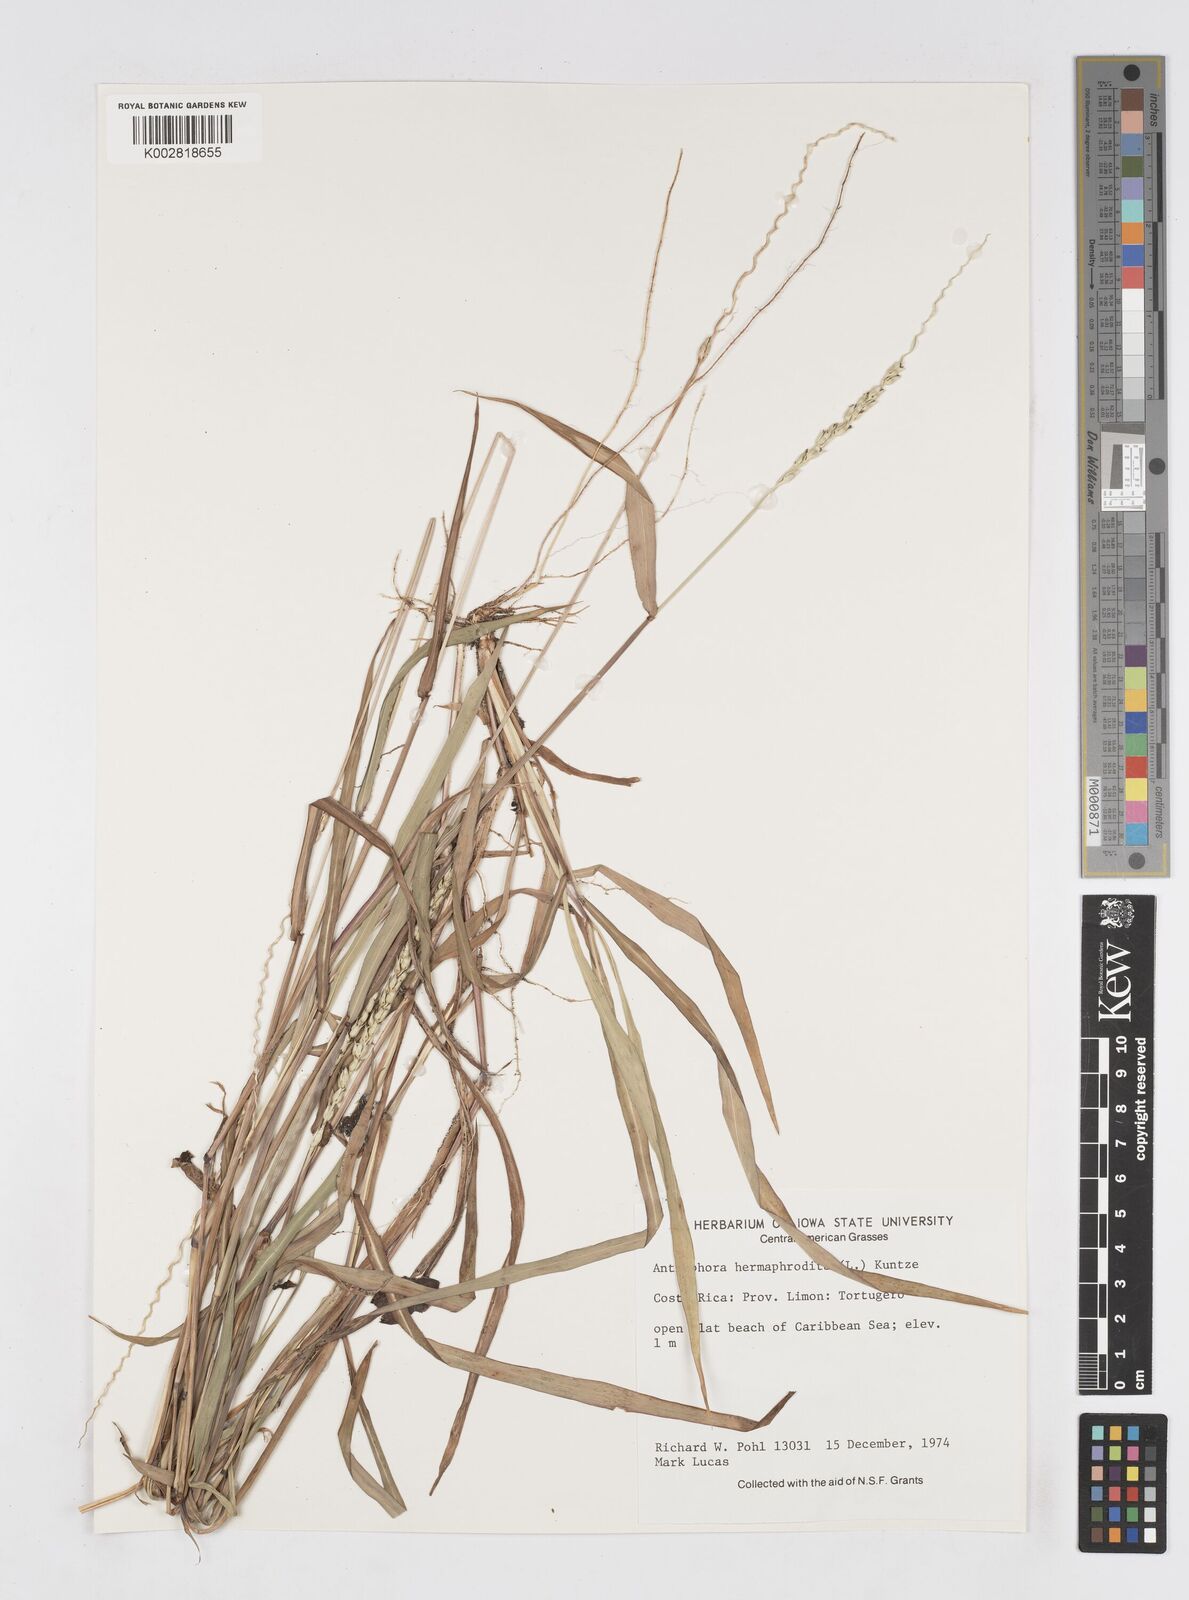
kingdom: Plantae
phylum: Tracheophyta
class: Liliopsida
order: Poales
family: Poaceae
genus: Anthephora
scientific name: Anthephora hermaphrodita
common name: Oldfield grass
